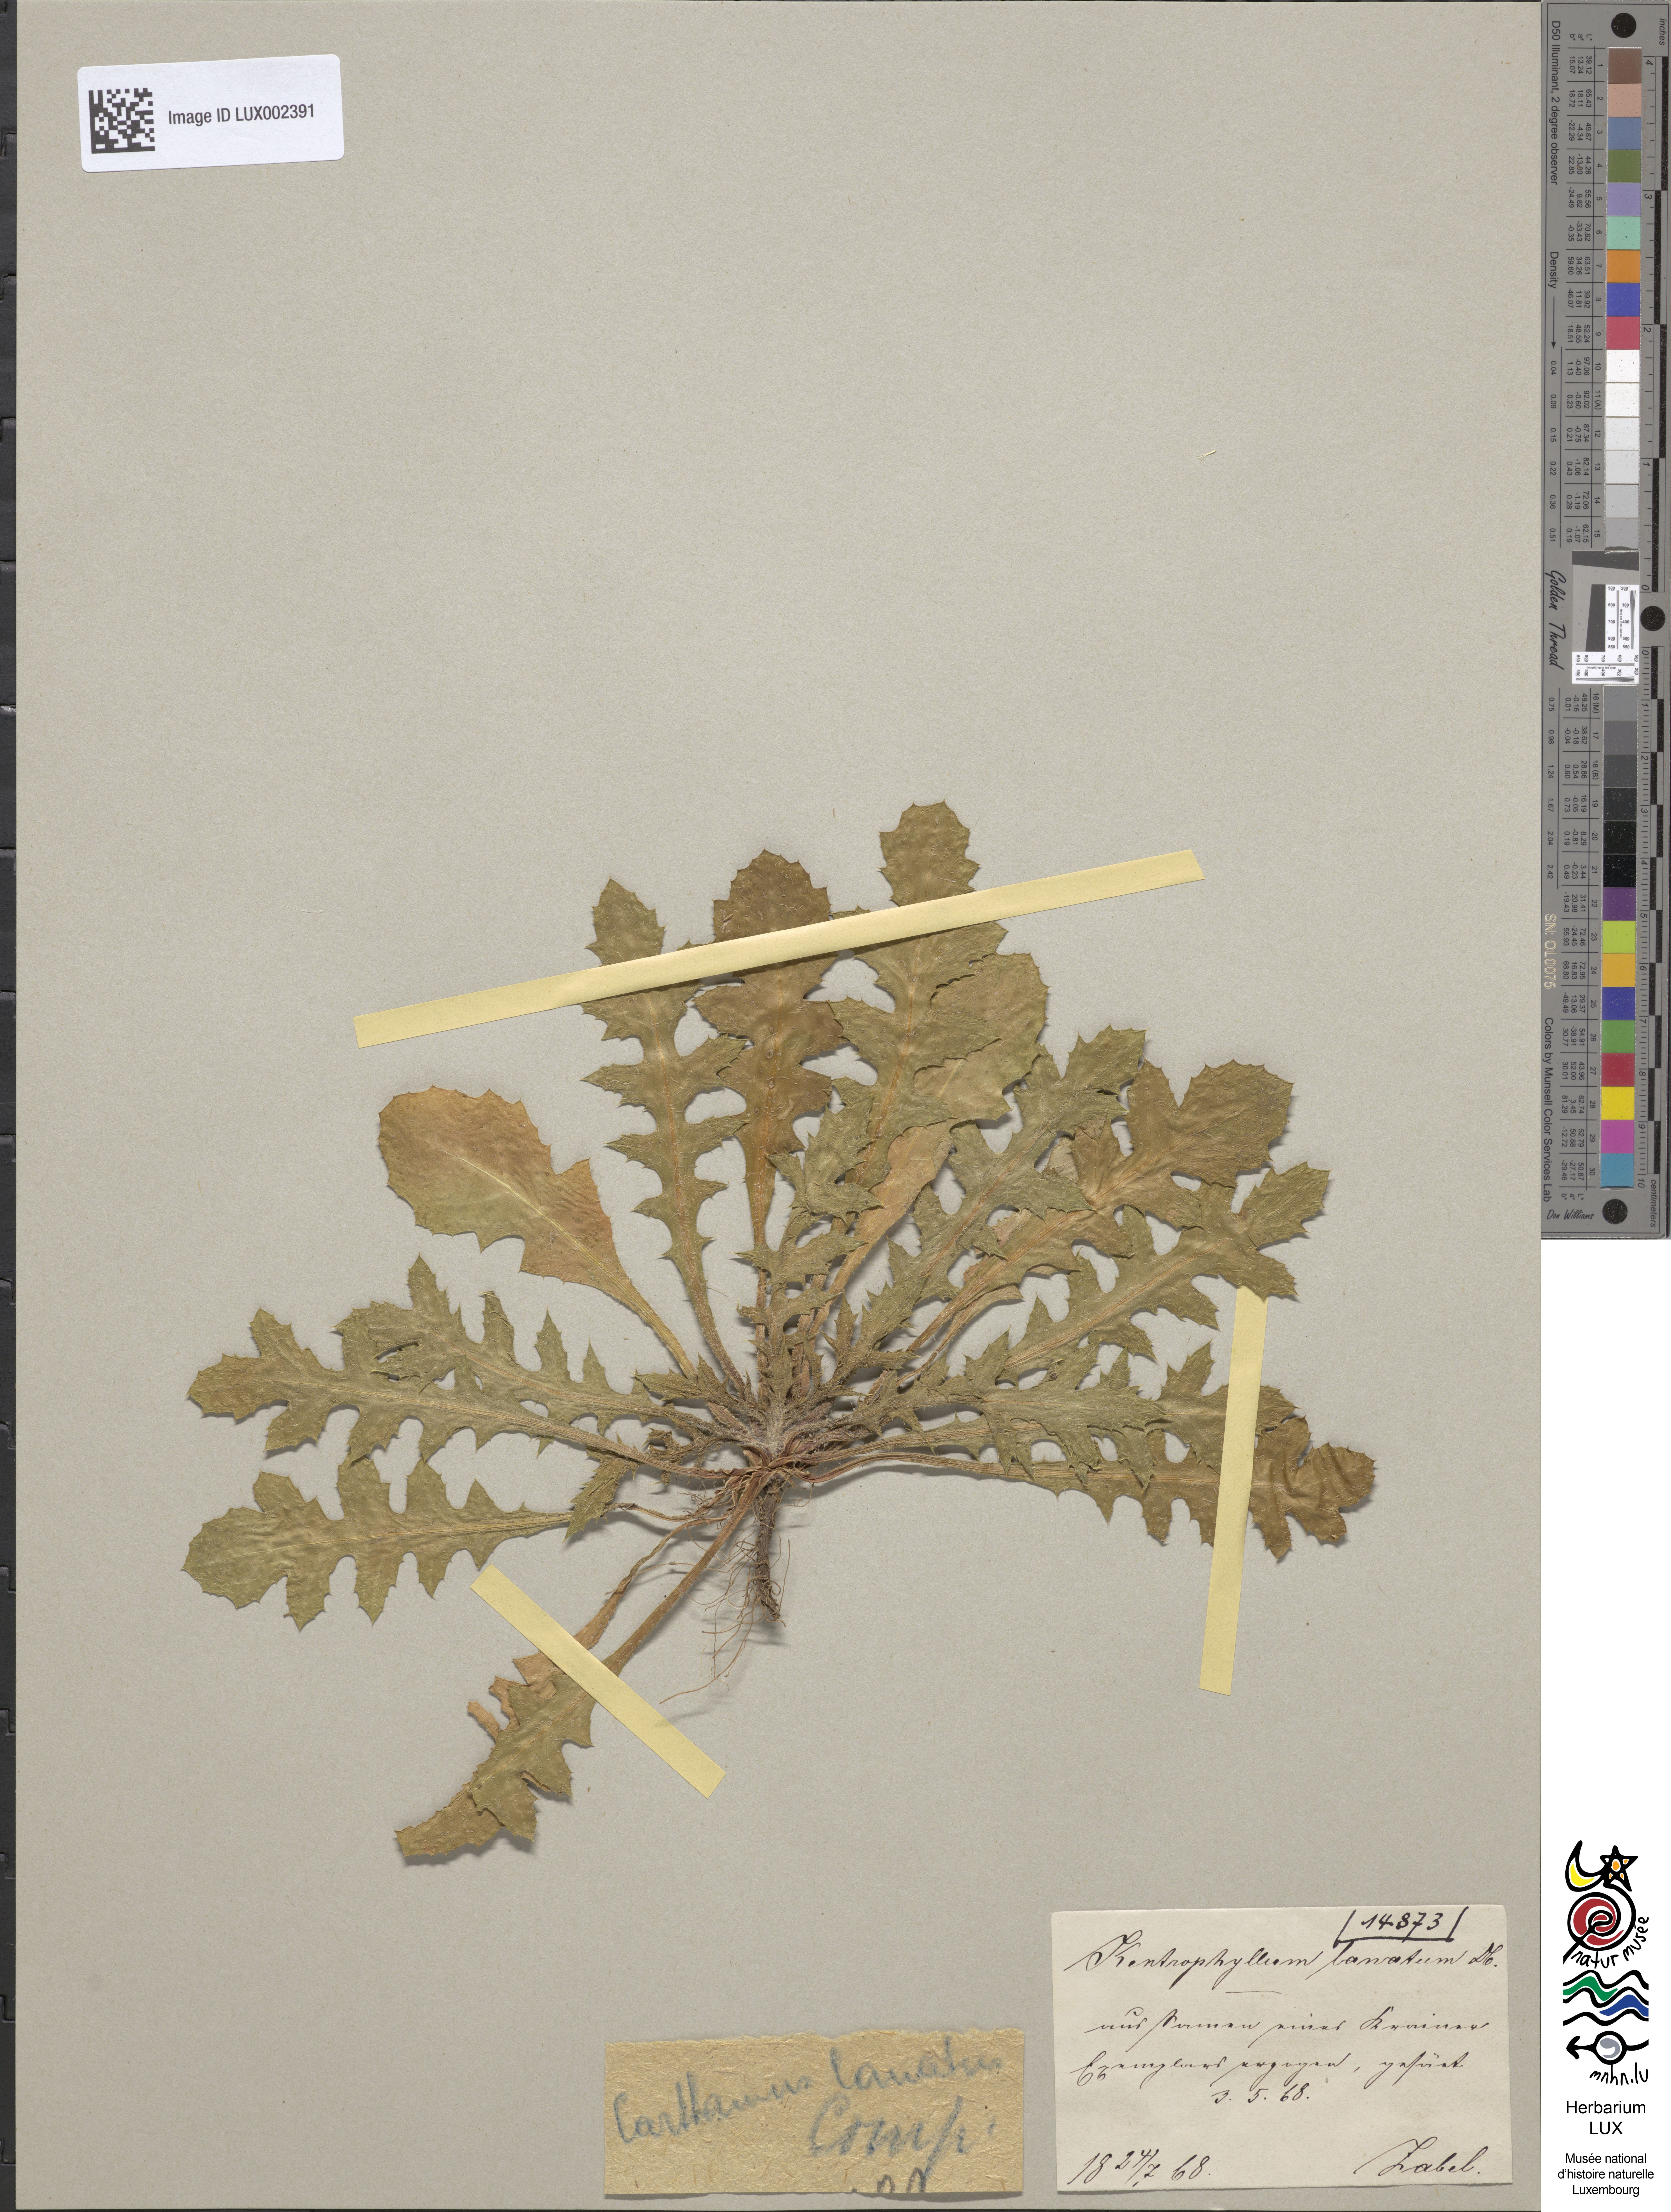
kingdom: Plantae
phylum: Tracheophyta
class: Magnoliopsida
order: Asterales
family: Asteraceae
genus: Carthamus
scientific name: Carthamus lanatus
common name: Downy safflower
